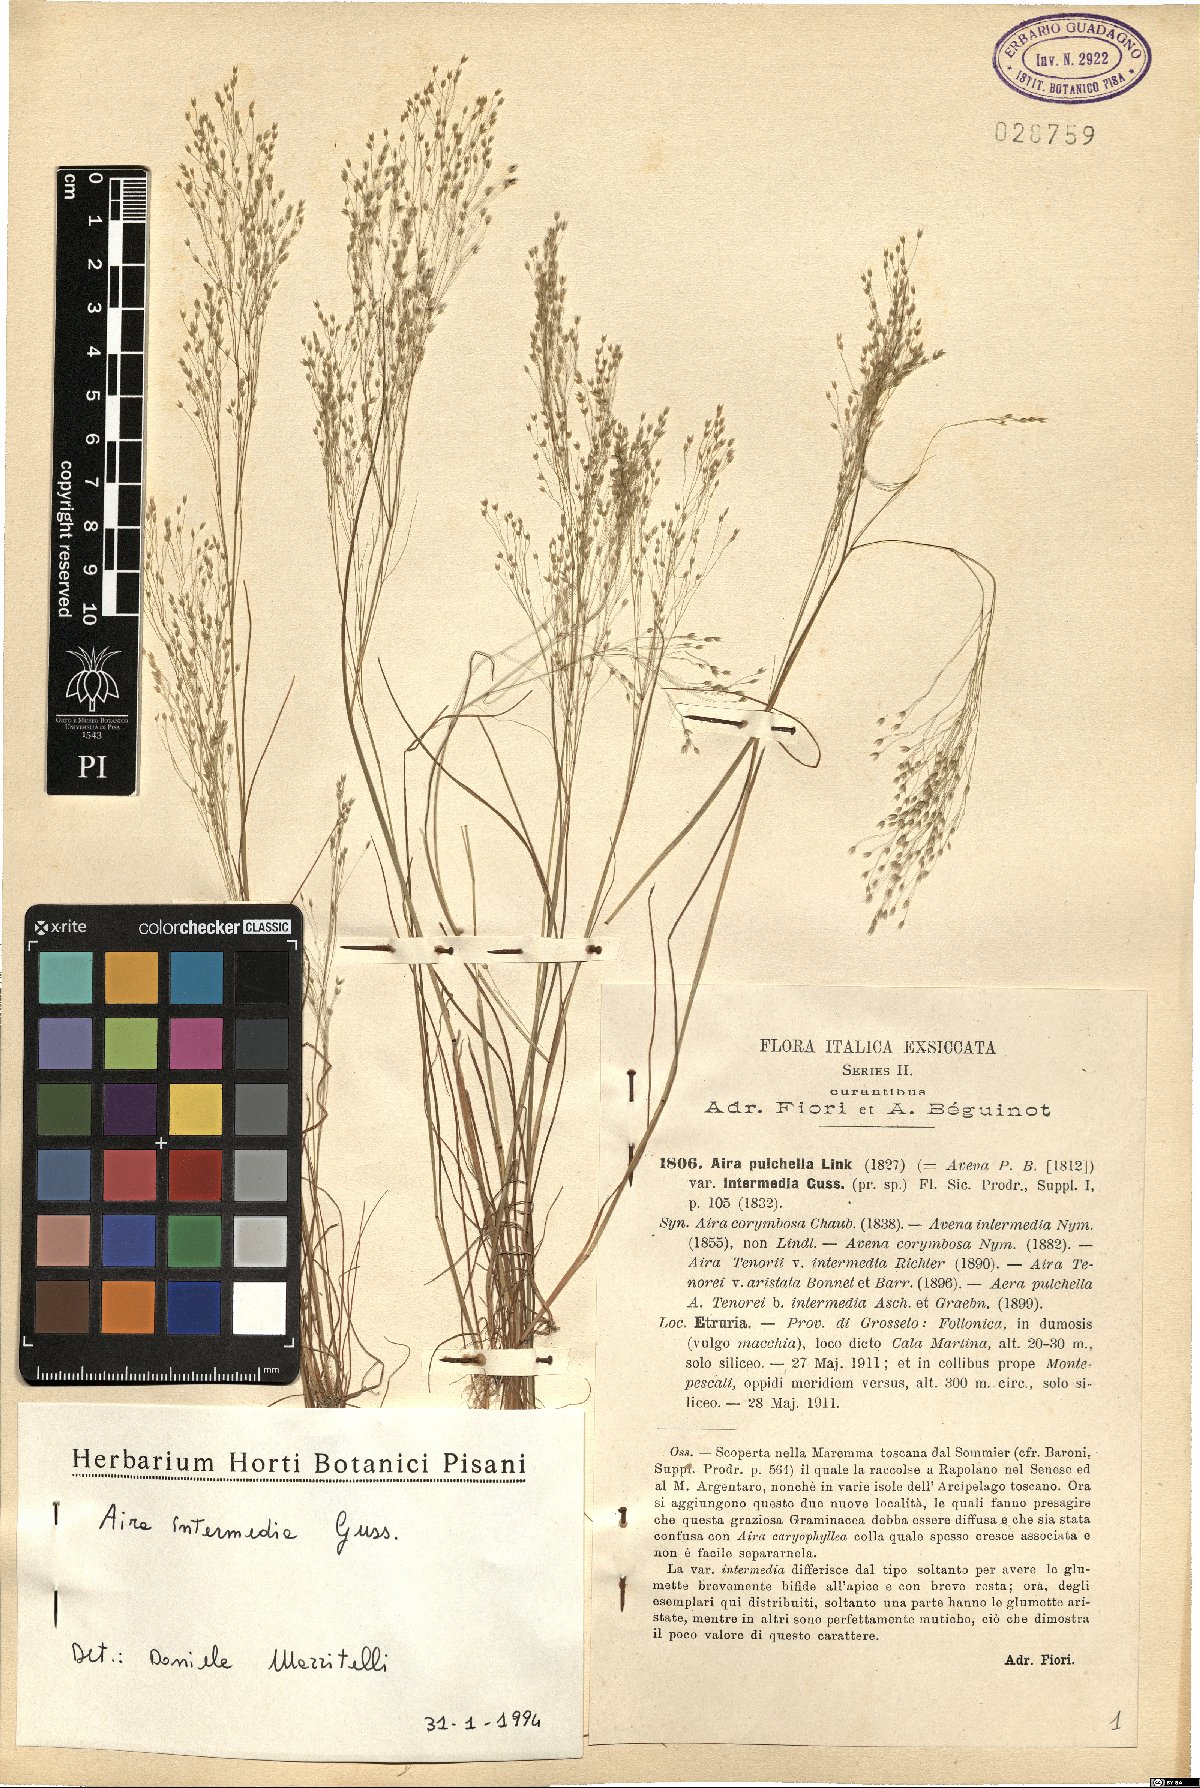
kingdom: Plantae
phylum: Tracheophyta
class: Liliopsida
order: Poales
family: Poaceae
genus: Aira
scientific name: Aira tenorei
